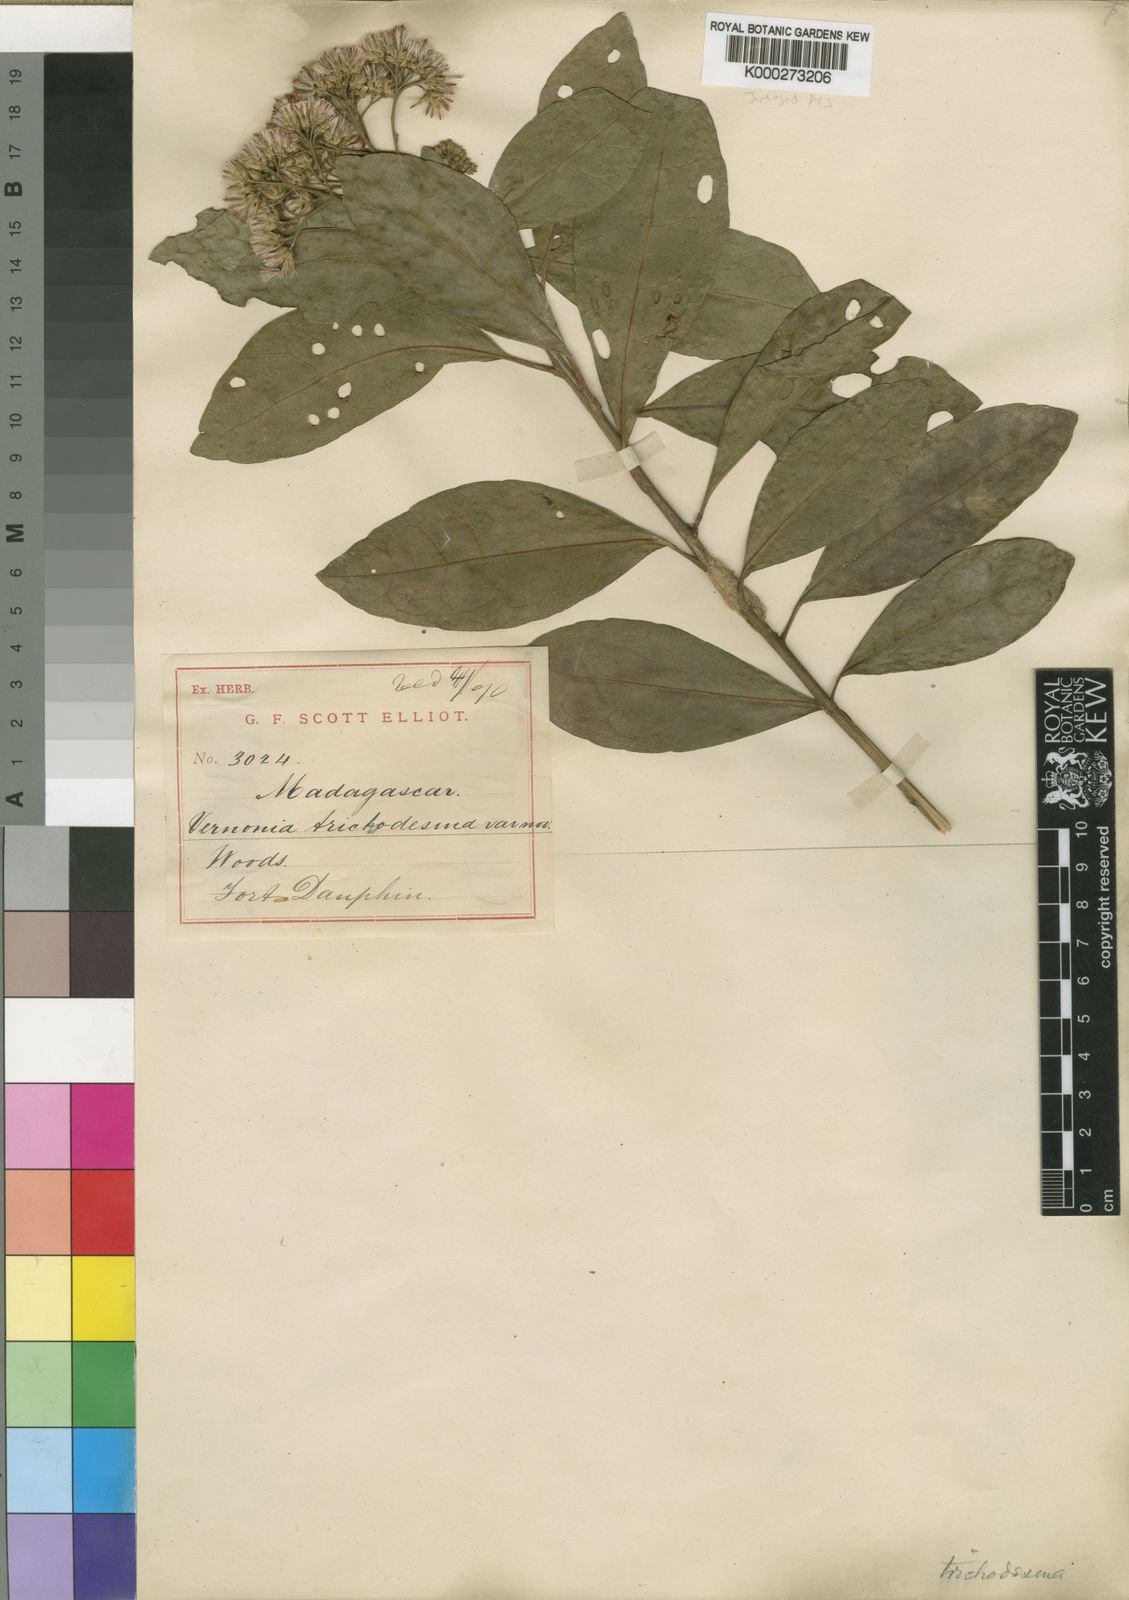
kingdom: Plantae
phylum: Tracheophyta
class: Magnoliopsida
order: Asterales
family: Asteraceae
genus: Gymnanthemum
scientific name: Gymnanthemum exsertum
